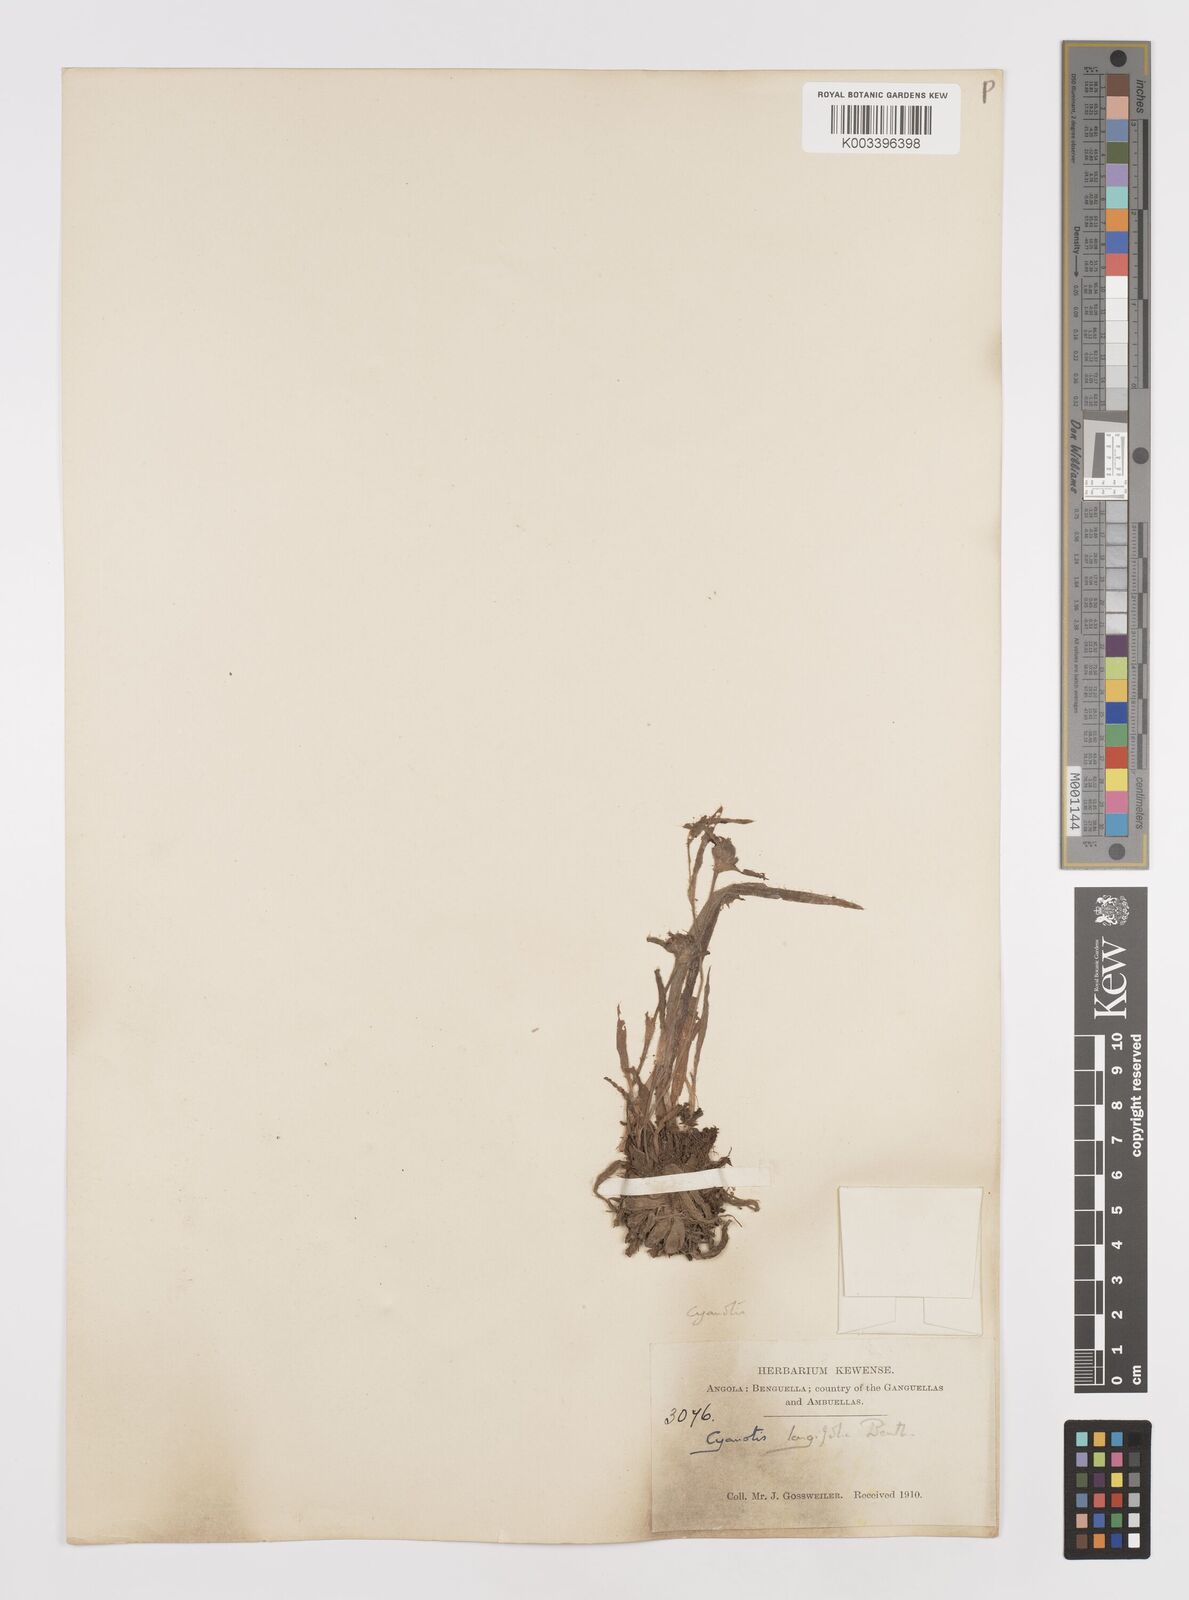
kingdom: Plantae
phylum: Tracheophyta
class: Liliopsida
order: Commelinales
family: Commelinaceae
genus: Cyanotis
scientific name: Cyanotis longifolia
